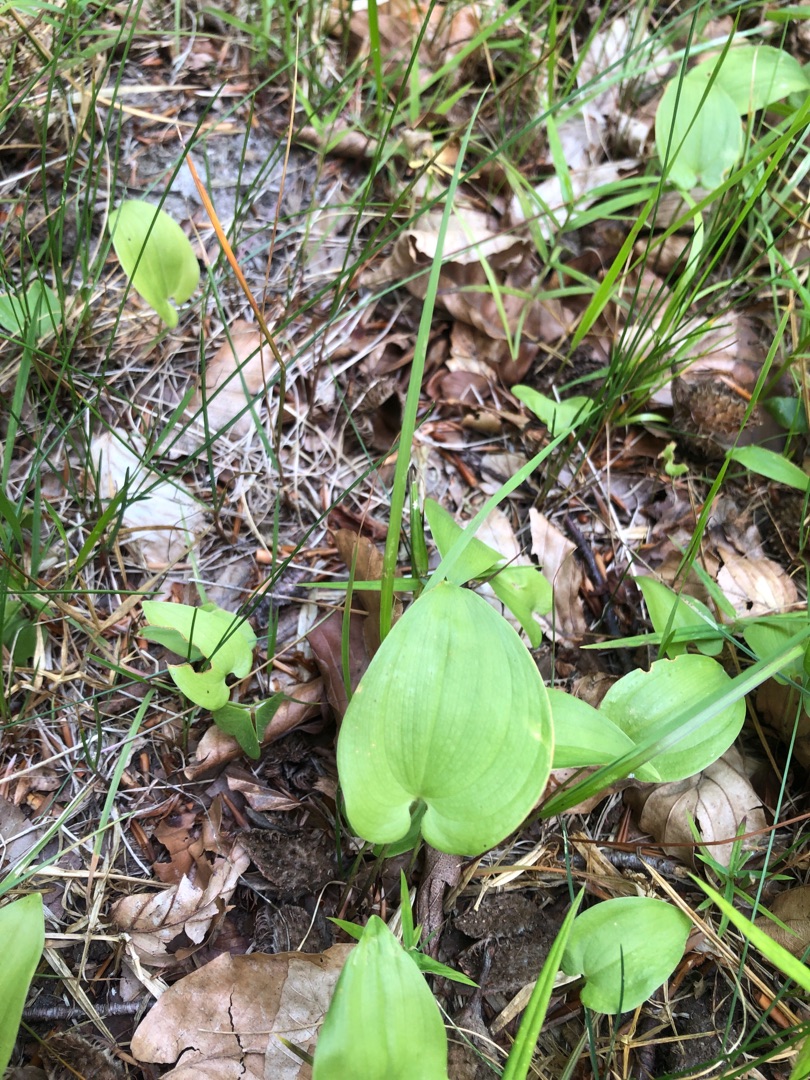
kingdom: Plantae
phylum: Tracheophyta
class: Liliopsida
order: Asparagales
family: Asparagaceae
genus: Maianthemum
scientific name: Maianthemum bifolium
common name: Majblomst
